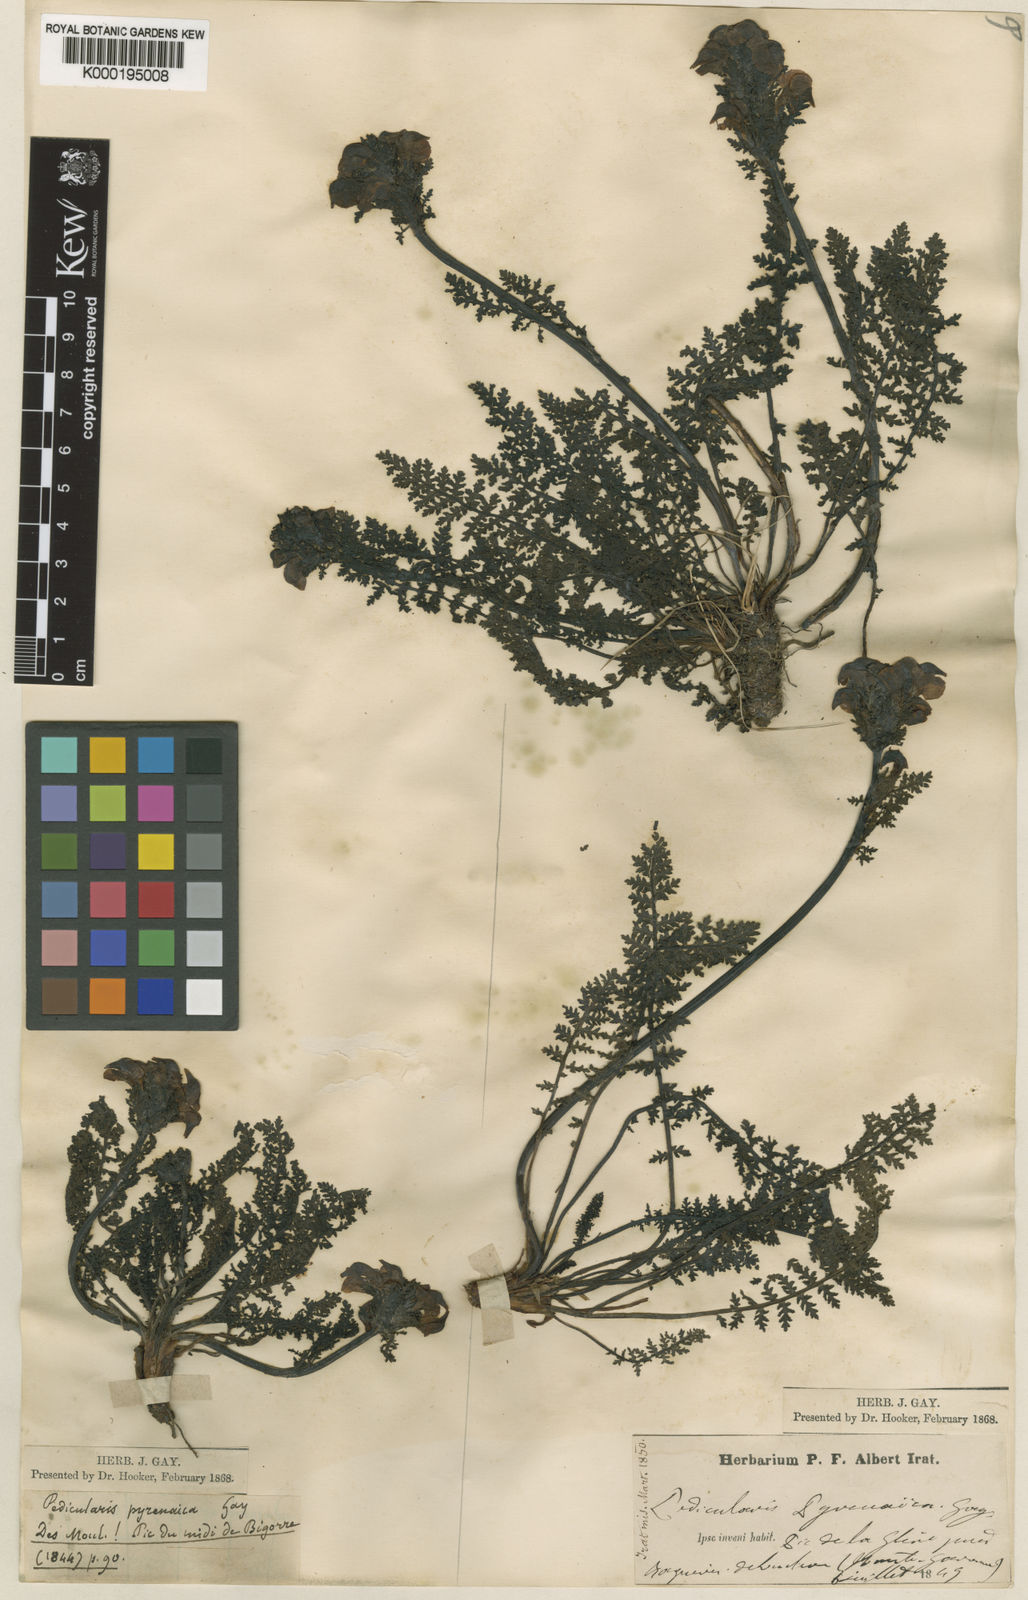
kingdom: Plantae
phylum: Tracheophyta
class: Magnoliopsida
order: Lamiales
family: Orobanchaceae
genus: Pedicularis
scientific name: Pedicularis pyrenaica
